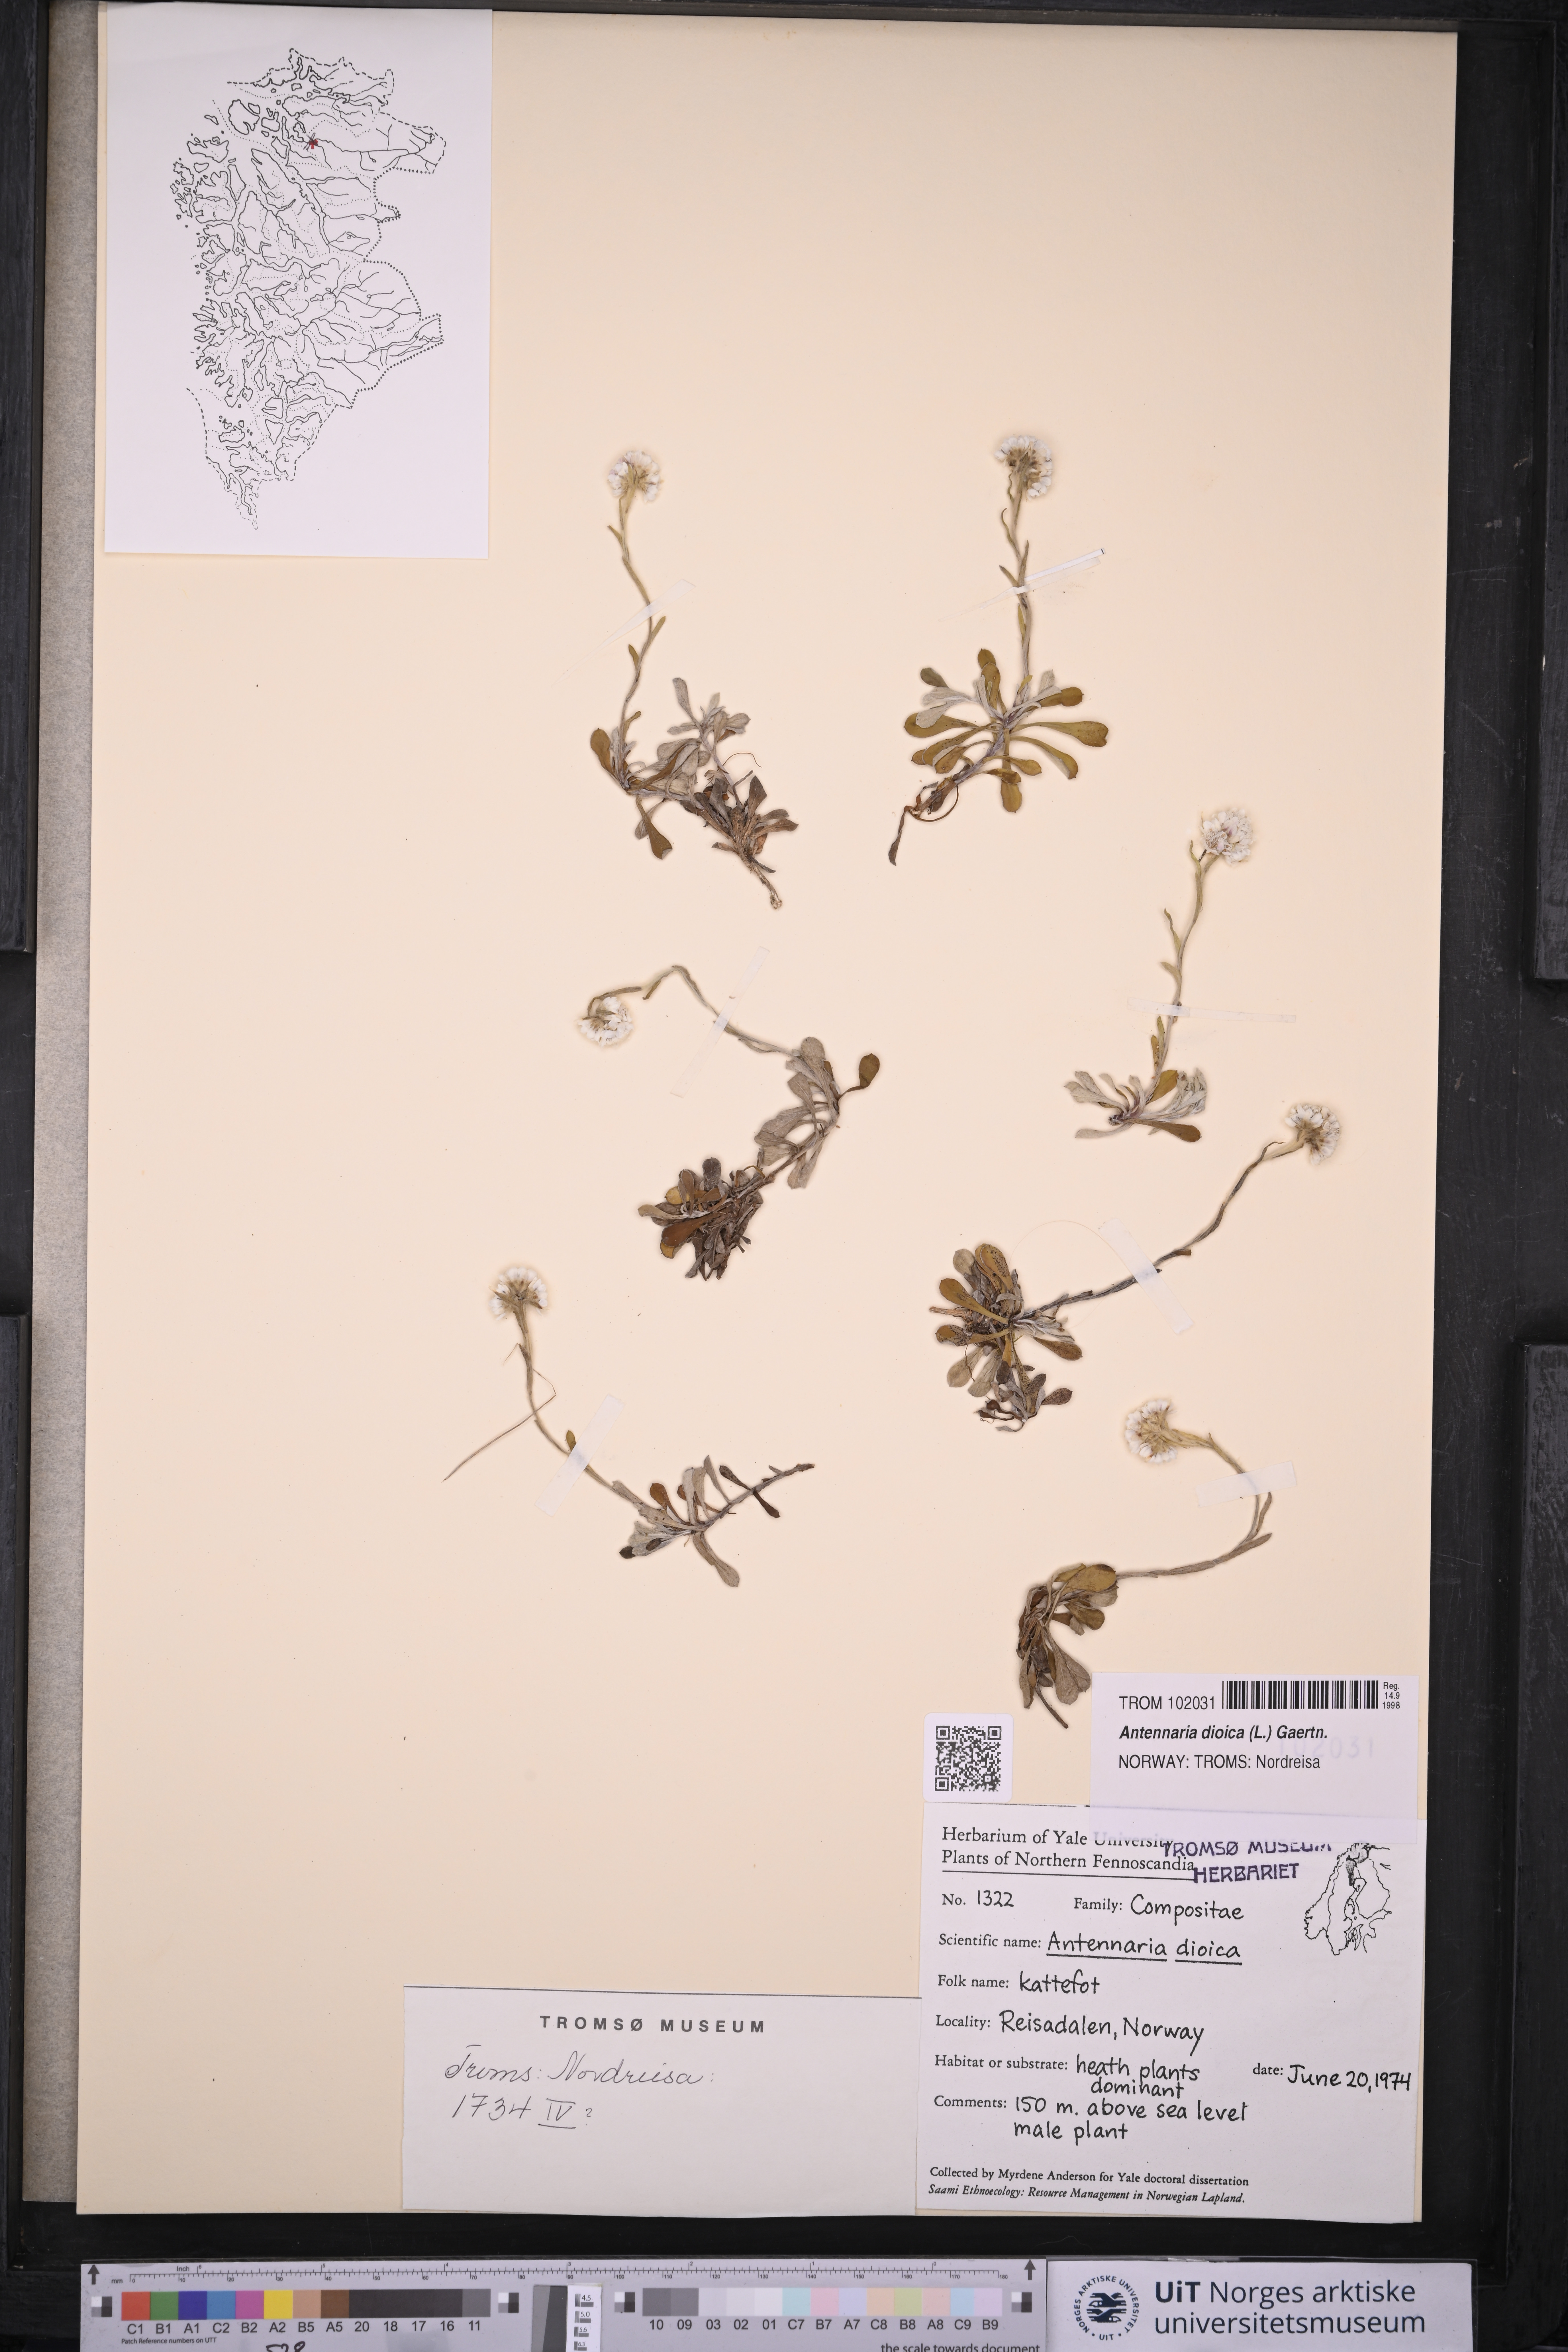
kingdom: Plantae
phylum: Tracheophyta
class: Magnoliopsida
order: Asterales
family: Asteraceae
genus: Antennaria
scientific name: Antennaria dioica
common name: Mountain everlasting
